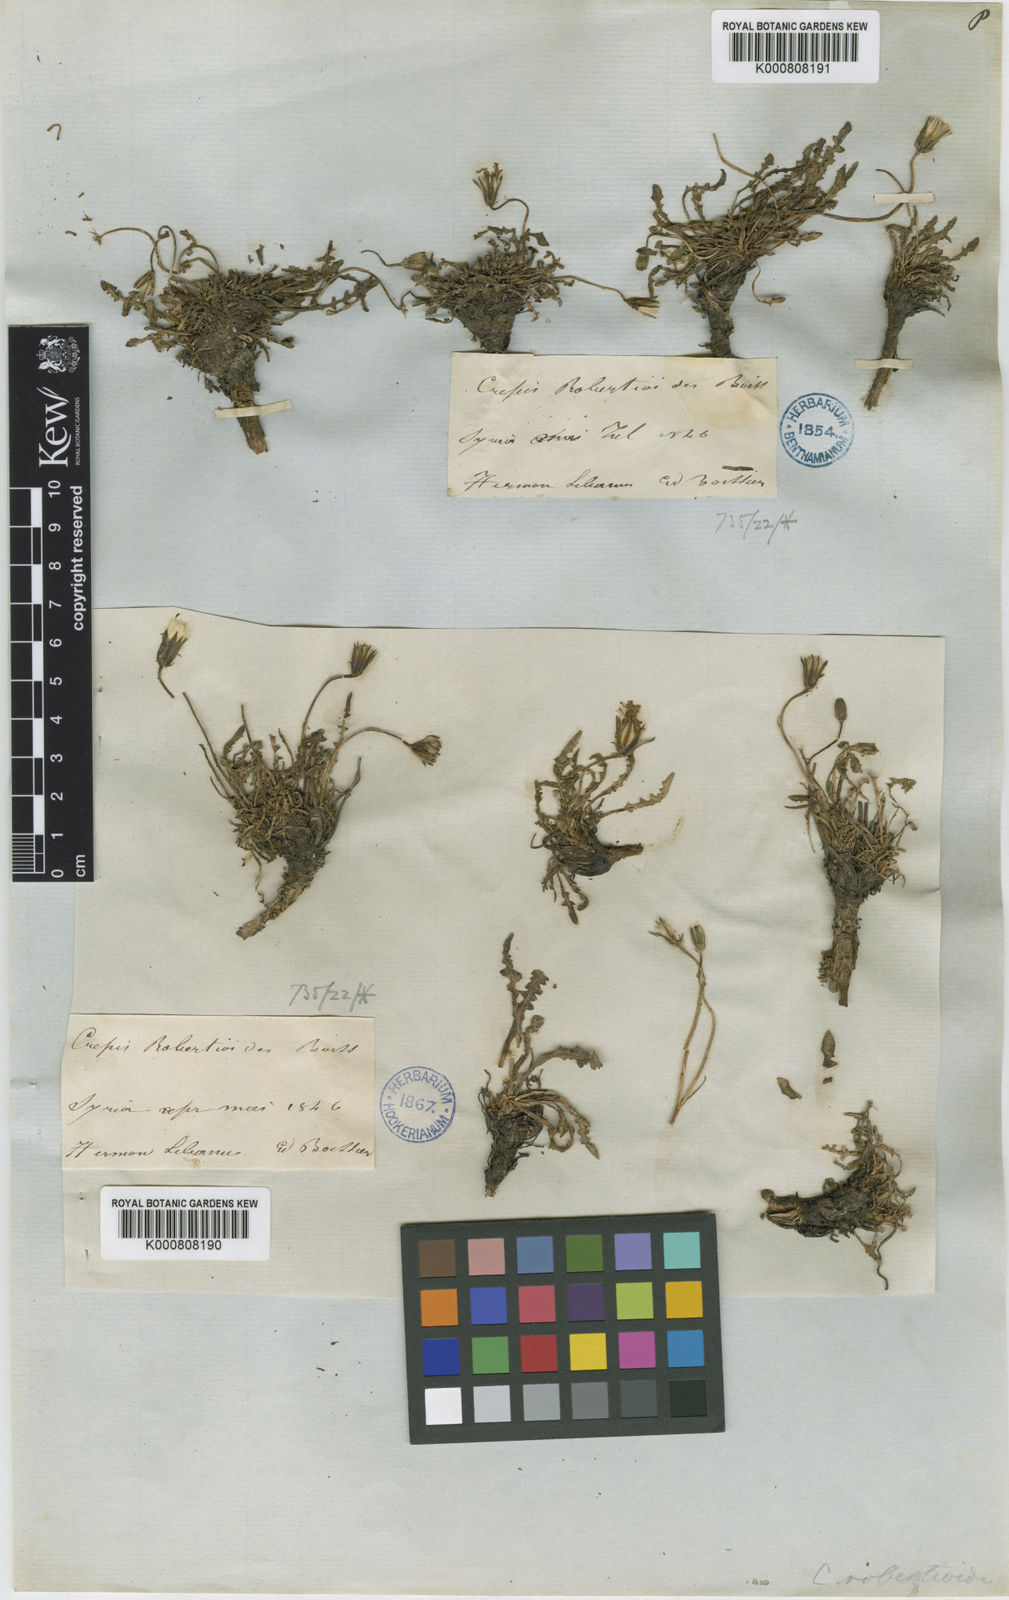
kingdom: Plantae
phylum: Tracheophyta
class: Magnoliopsida
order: Asterales
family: Asteraceae
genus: Crepis
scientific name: Crepis robertioides
